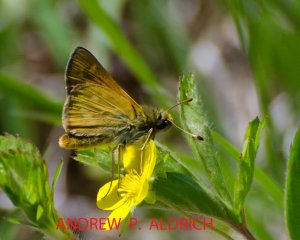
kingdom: Animalia
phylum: Arthropoda
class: Insecta
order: Lepidoptera
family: Hesperiidae
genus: Hesperia
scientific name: Hesperia sassacus
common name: Sassacus Skipper
